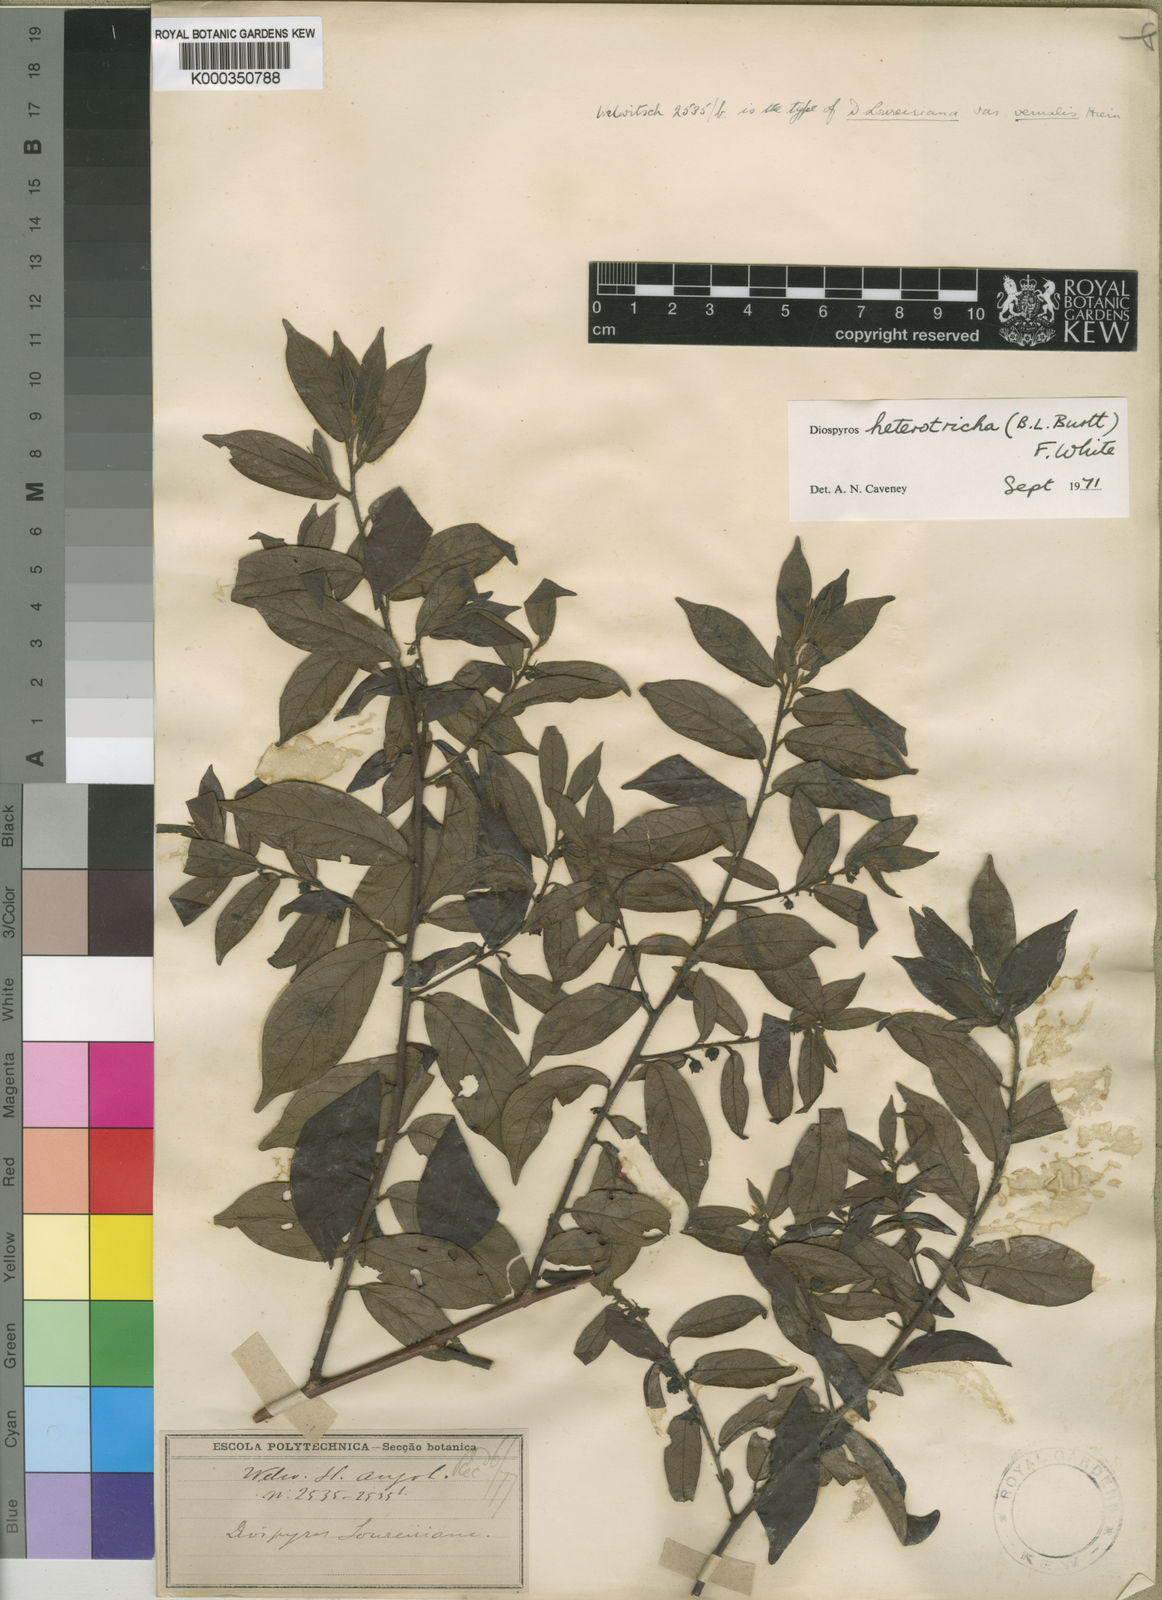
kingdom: Plantae
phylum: Tracheophyta
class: Magnoliopsida
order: Ericales
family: Ebenaceae
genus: Diospyros
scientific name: Diospyros heterotricha
